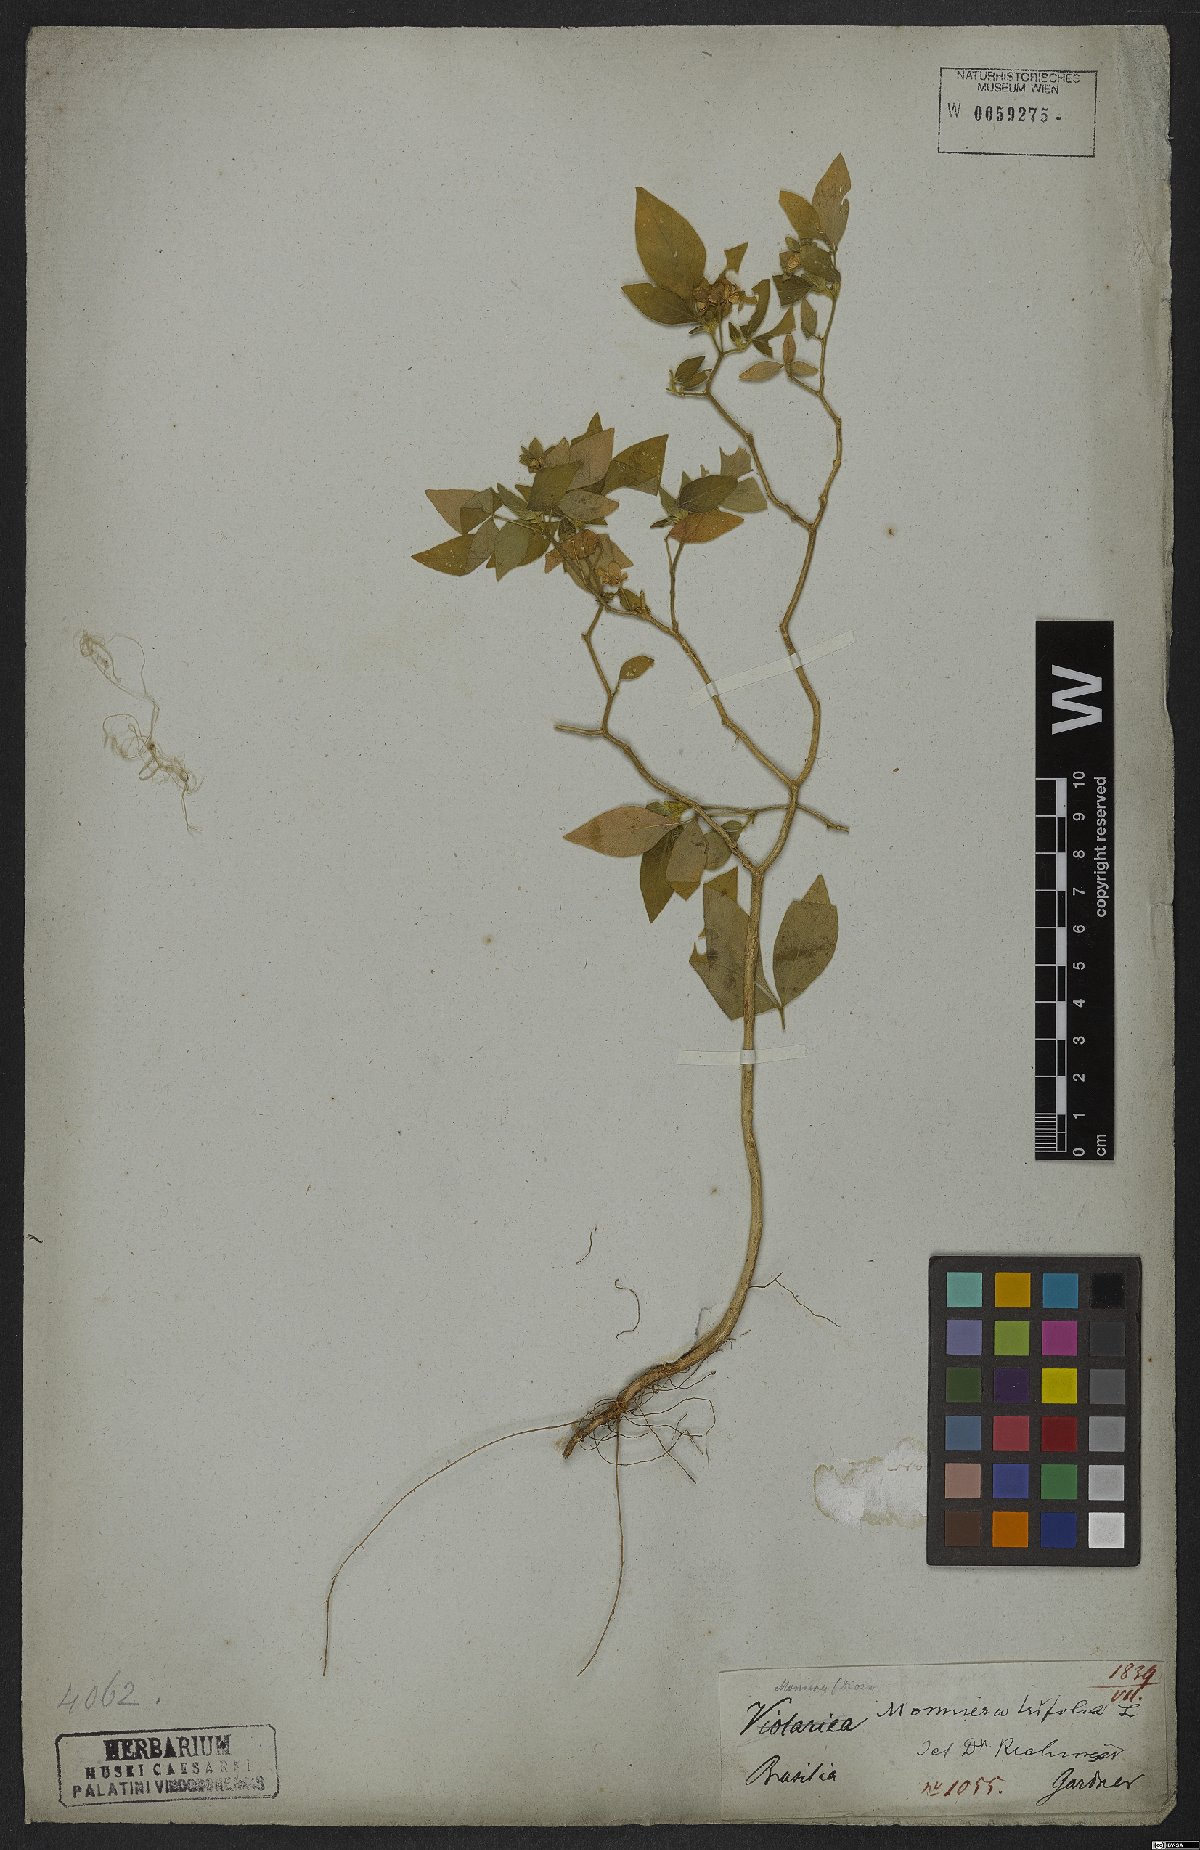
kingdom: Plantae
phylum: Tracheophyta
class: Magnoliopsida
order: Sapindales
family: Rutaceae
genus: Ertela
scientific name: Ertela trifolia
